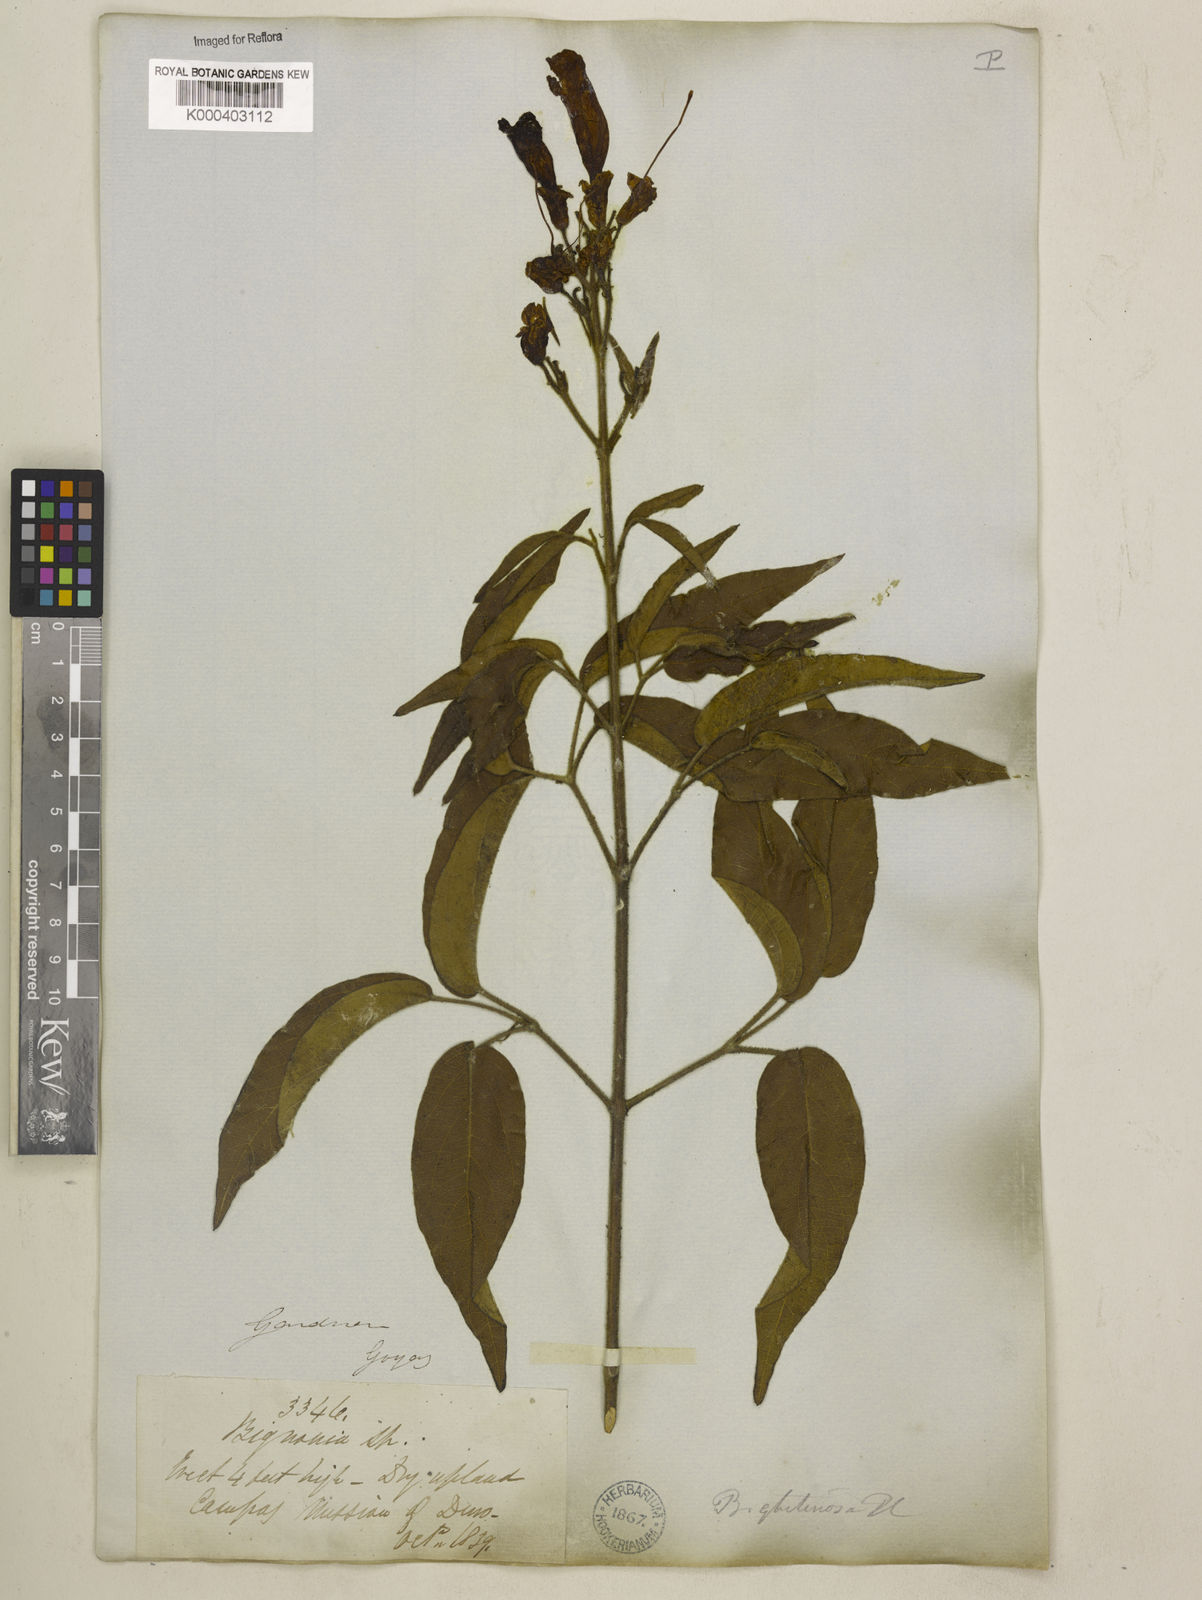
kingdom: Plantae
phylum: Tracheophyta
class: Magnoliopsida
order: Lamiales
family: Bignoniaceae
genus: Cuspidaria
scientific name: Cuspidaria sceptrum
